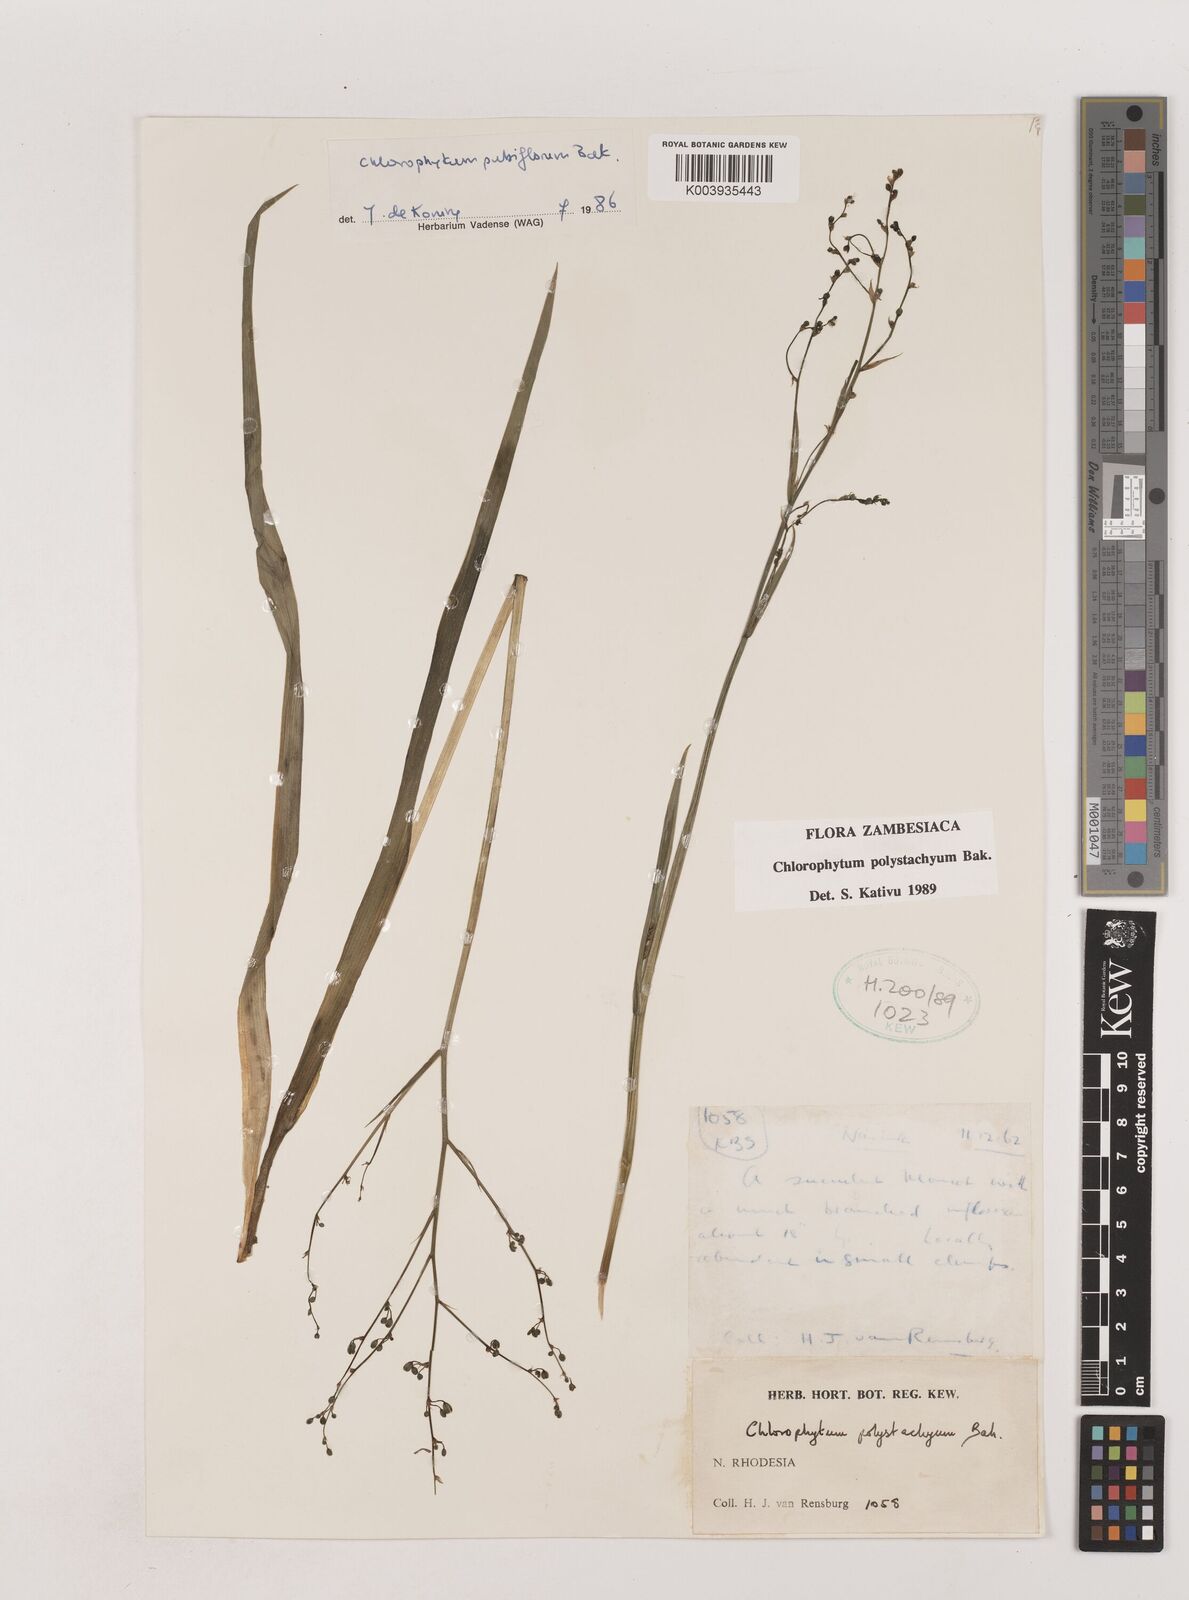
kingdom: Plantae
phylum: Tracheophyta
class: Liliopsida
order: Asparagales
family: Asparagaceae
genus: Chlorophytum
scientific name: Chlorophytum polystachys
